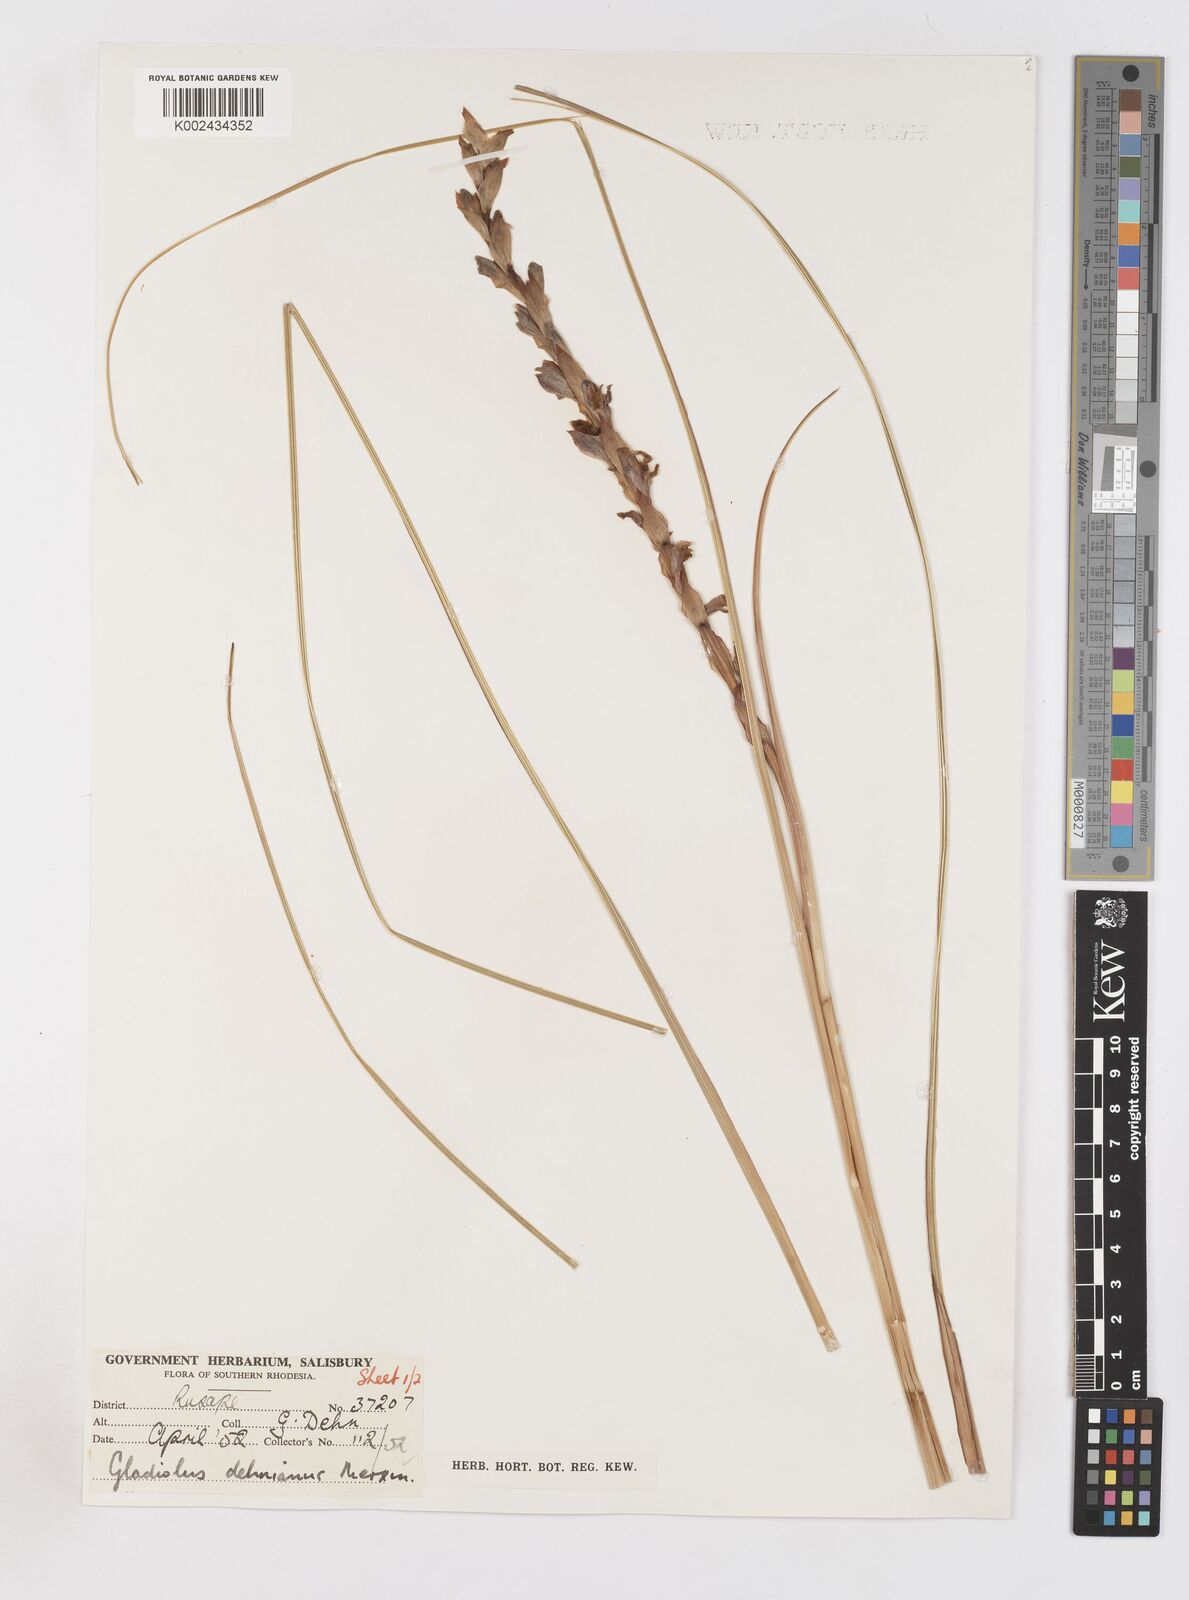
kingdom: Plantae
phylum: Tracheophyta
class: Liliopsida
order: Asparagales
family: Iridaceae
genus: Gladiolus
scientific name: Gladiolus sericeovillosus
